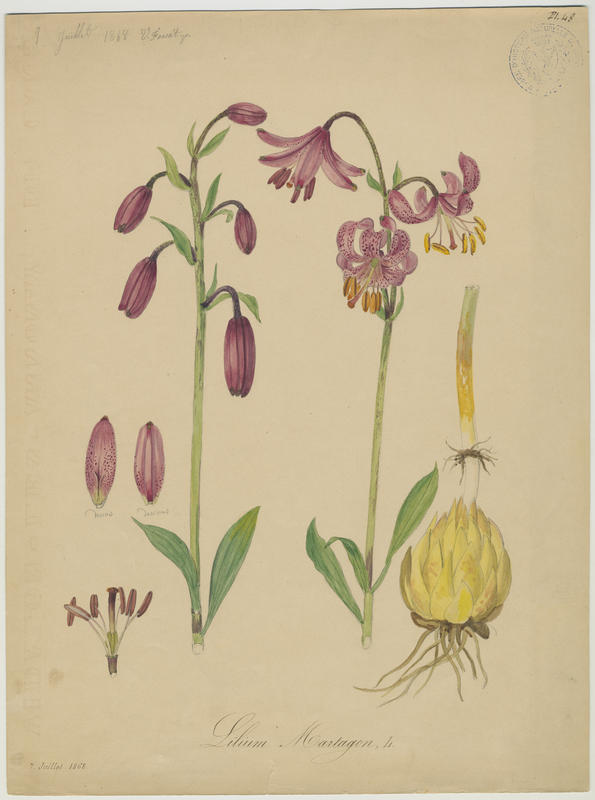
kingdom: Plantae
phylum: Tracheophyta
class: Liliopsida
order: Liliales
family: Liliaceae
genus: Lilium
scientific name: Lilium martagon
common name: Martagon lily
